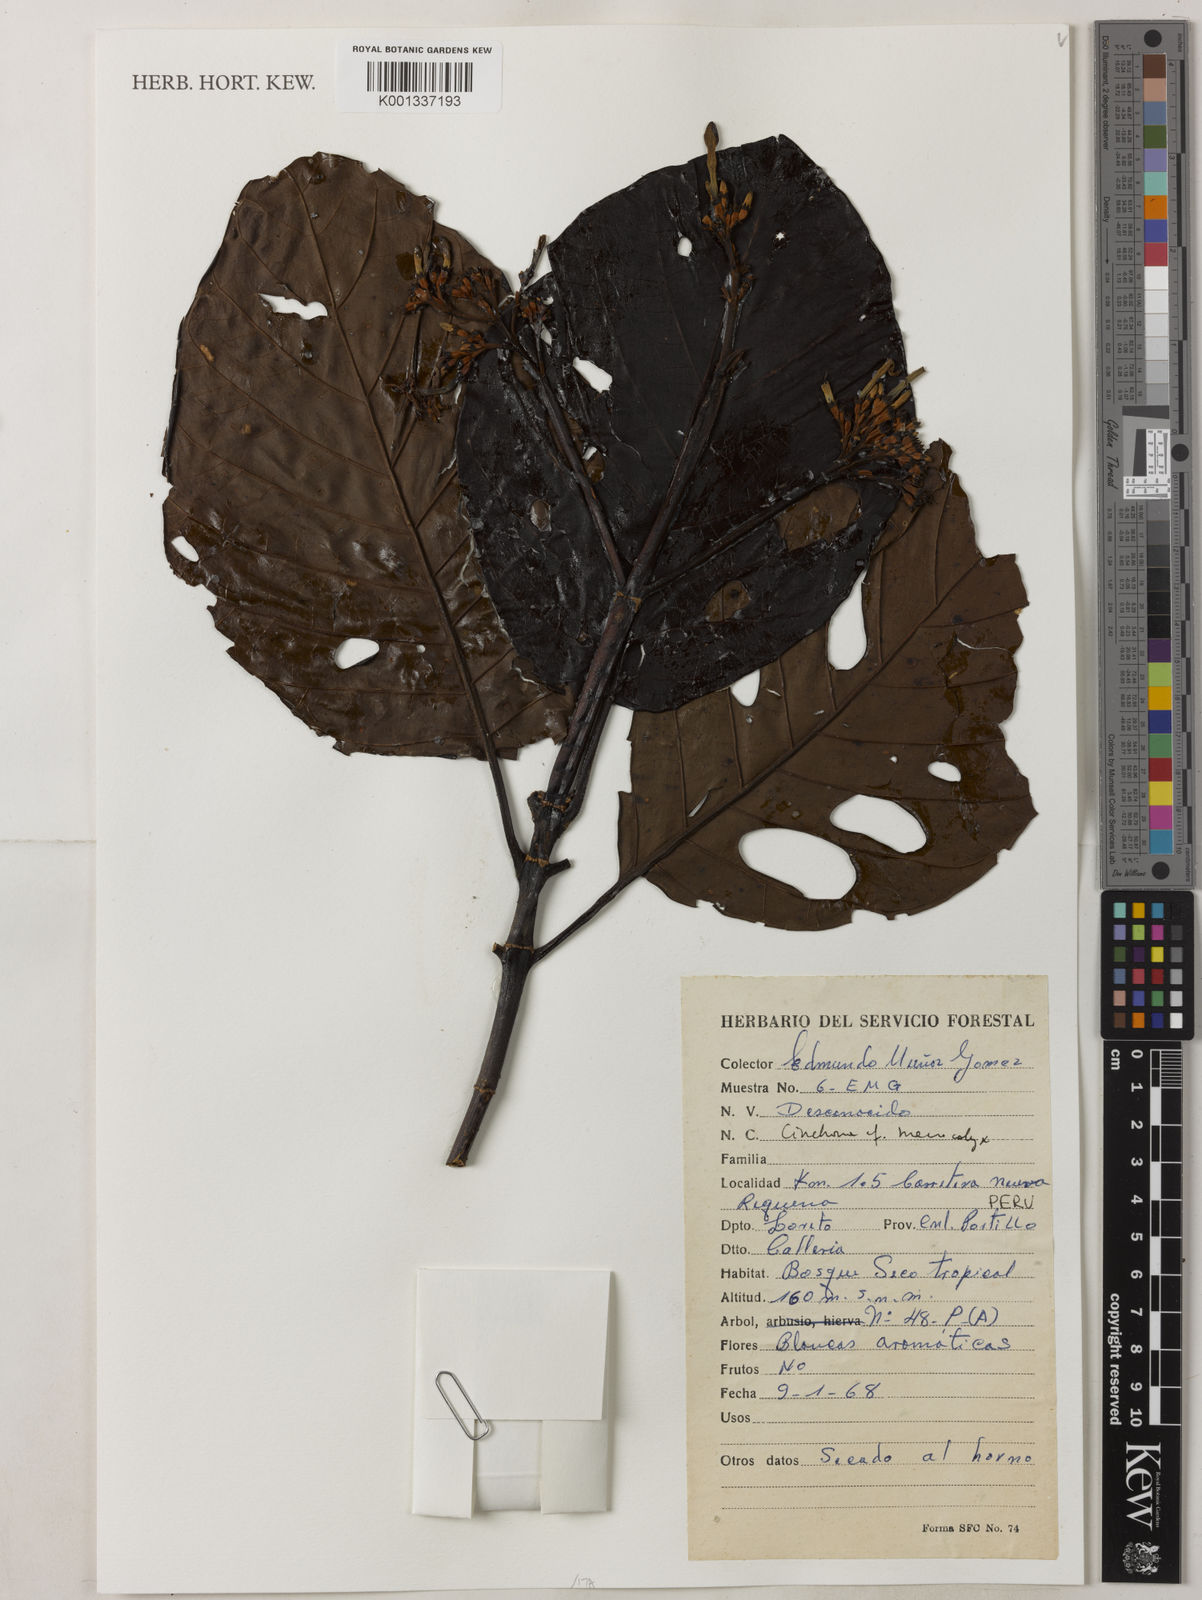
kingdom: Plantae
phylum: Tracheophyta
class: Magnoliopsida
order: Gentianales
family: Rubiaceae
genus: Cinchona
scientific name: Cinchona macrocalyx
